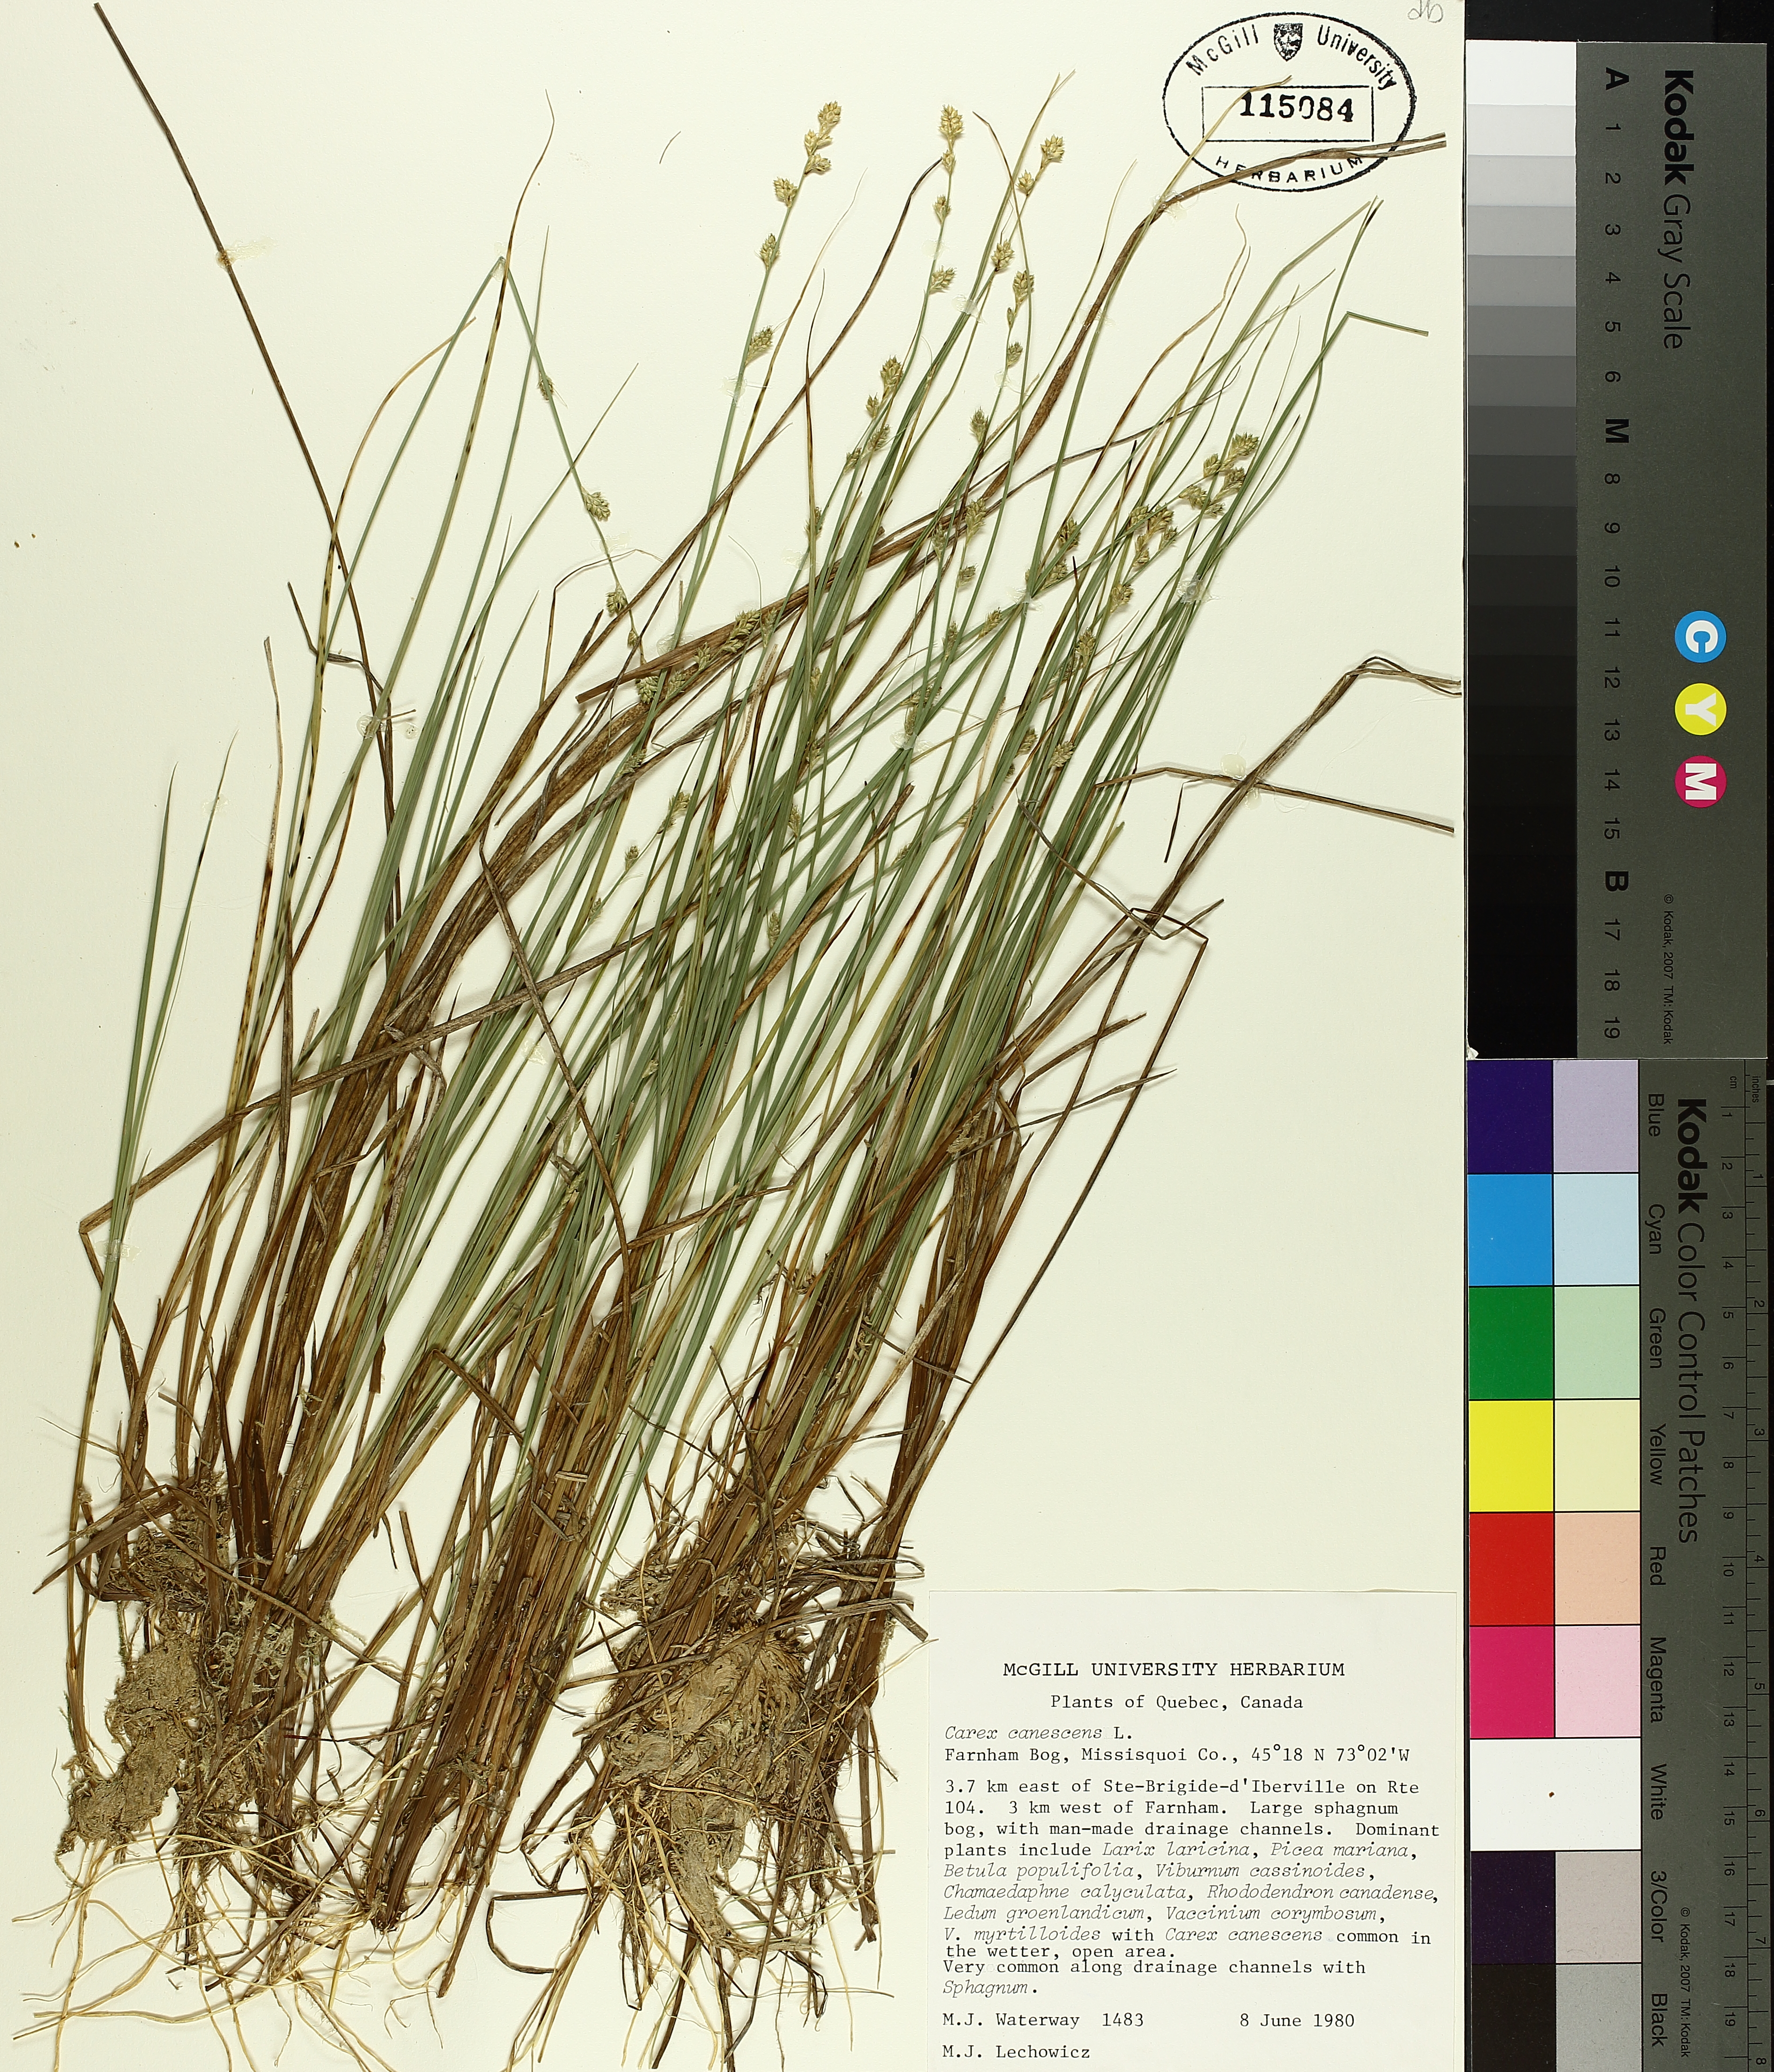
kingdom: Plantae
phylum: Tracheophyta
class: Liliopsida
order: Poales
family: Cyperaceae
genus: Carex
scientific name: Carex canescens
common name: White sedge
